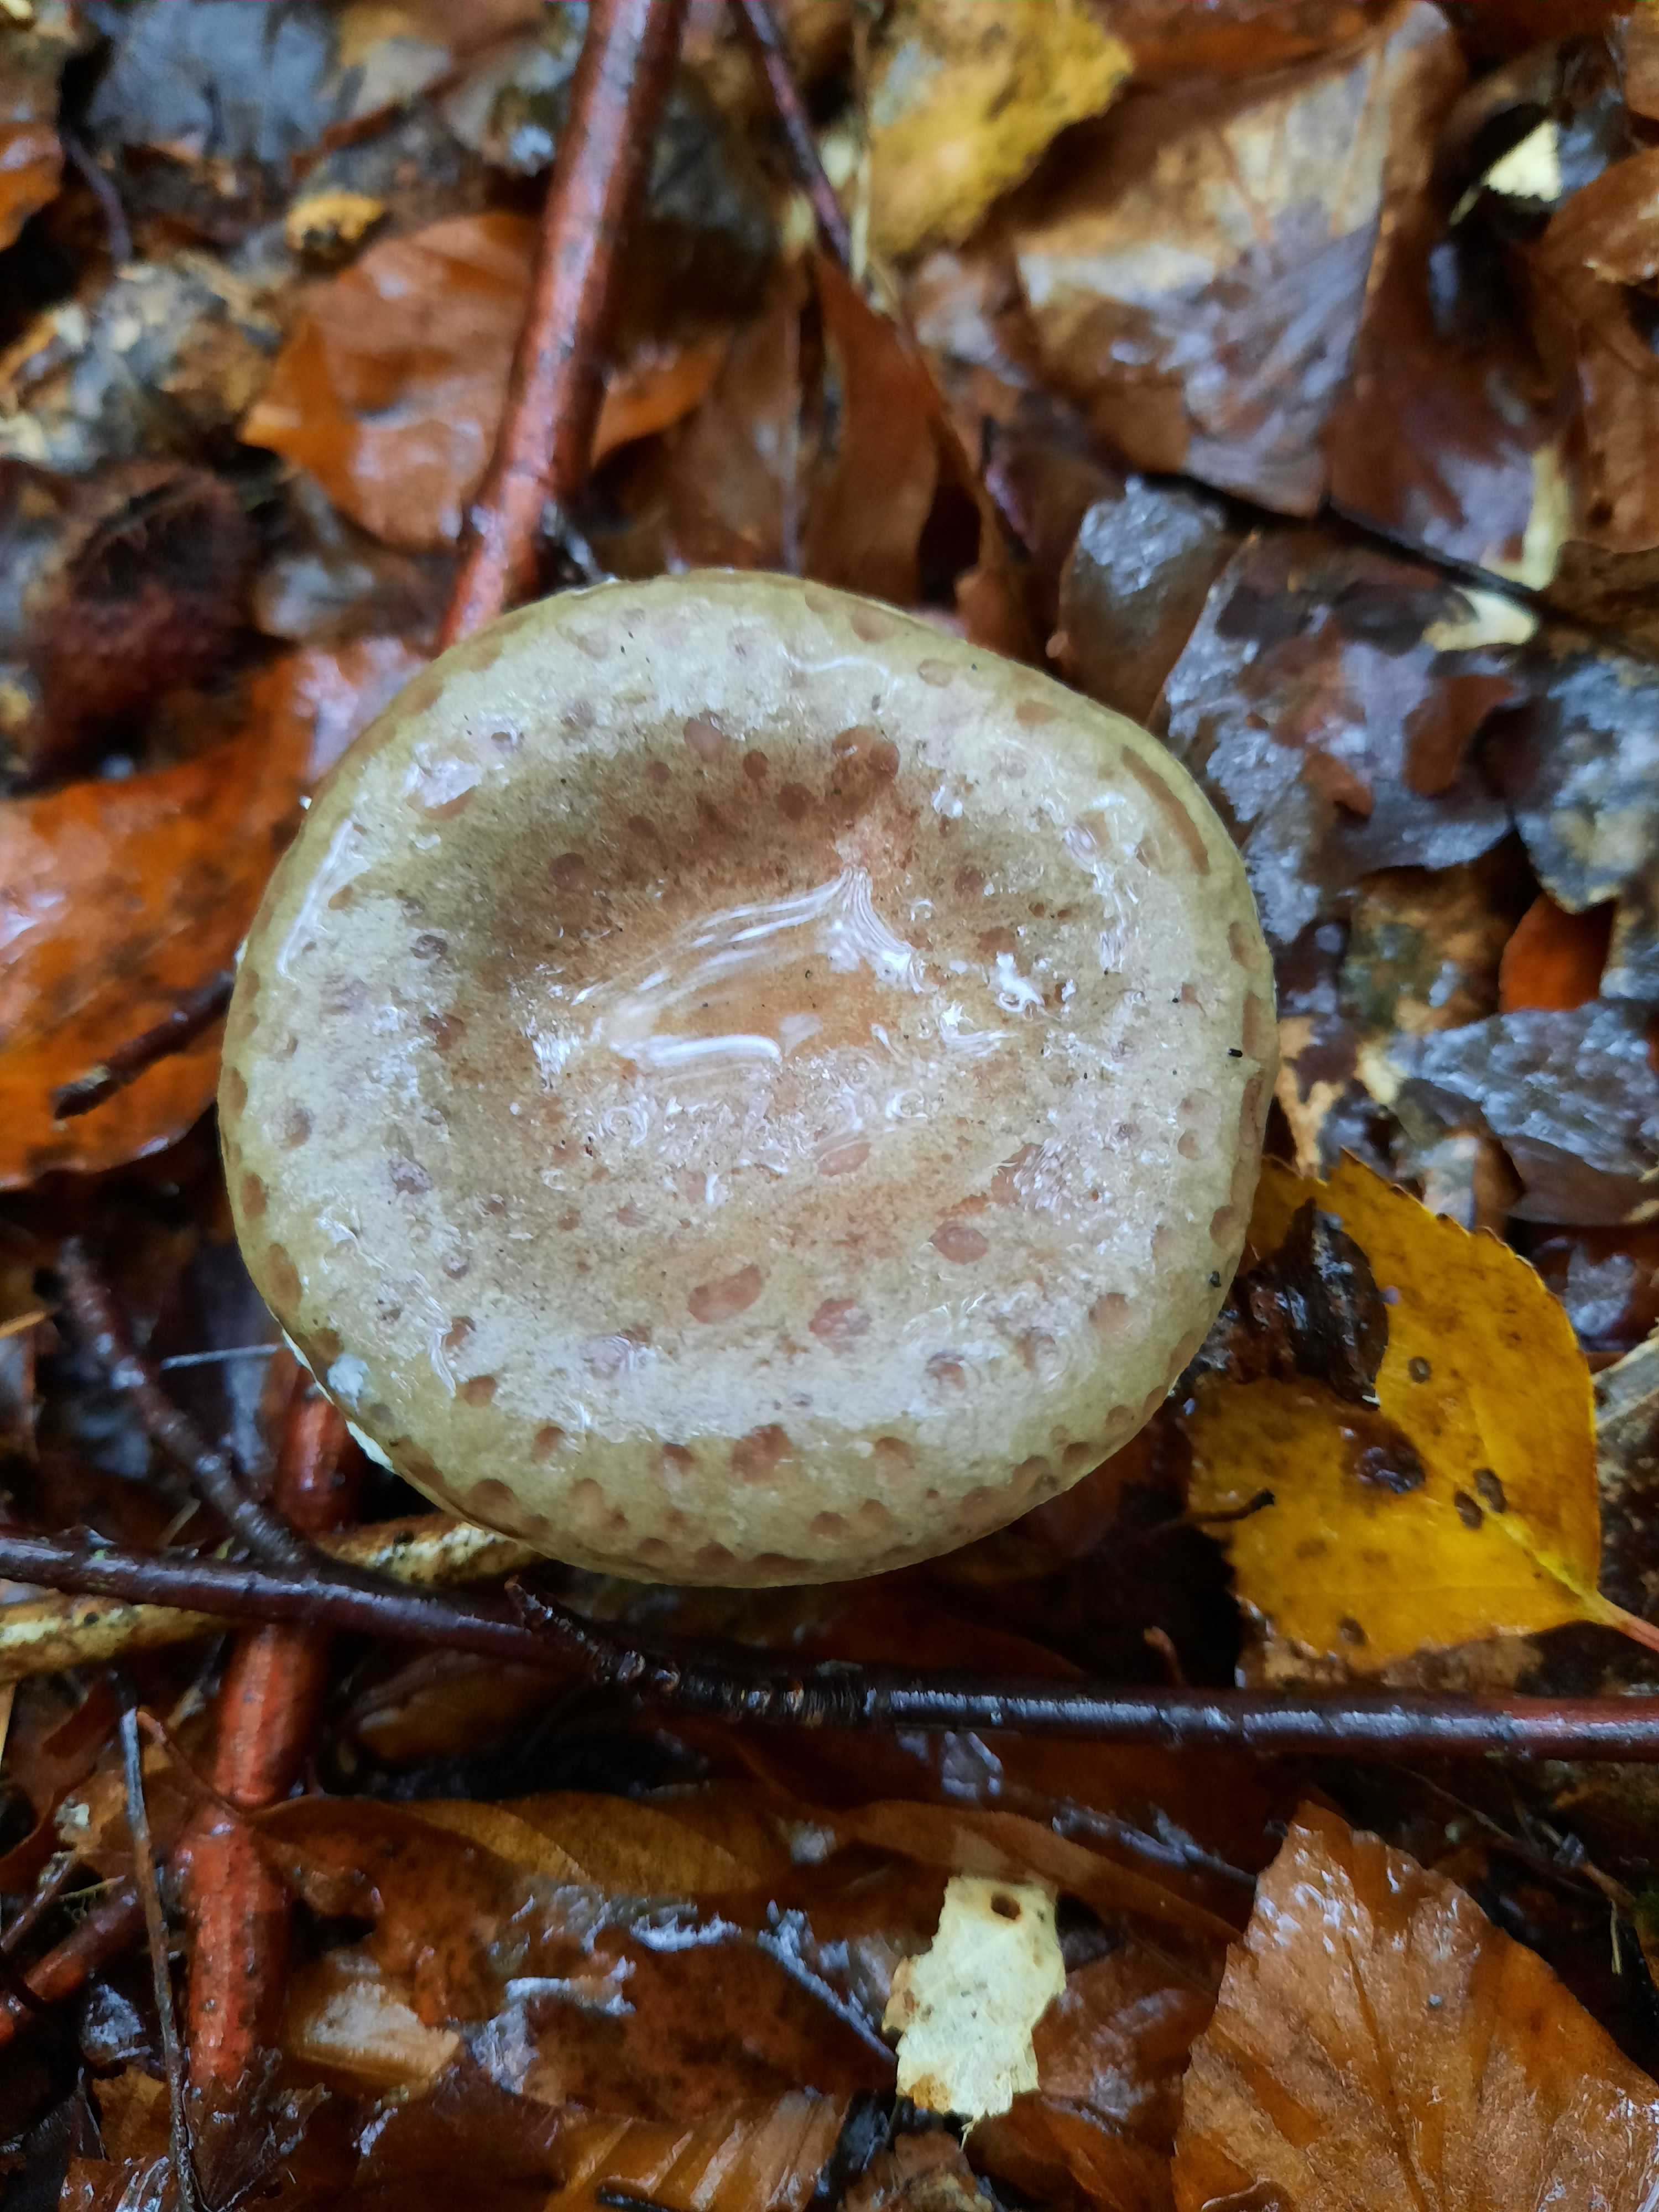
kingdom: Fungi
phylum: Basidiomycota
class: Agaricomycetes
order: Russulales
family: Russulaceae
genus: Lactarius
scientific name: Lactarius blennius
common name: dråbeplettet mælkehat
